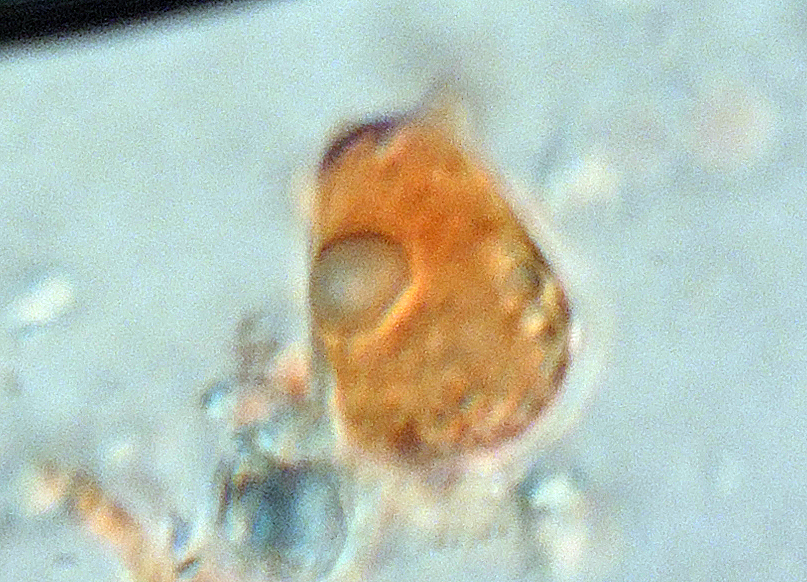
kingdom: Fungi
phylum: Basidiomycota
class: Agaricomycetes
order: Agaricales
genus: Dendrothele
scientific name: Dendrothele pachysterigmata
